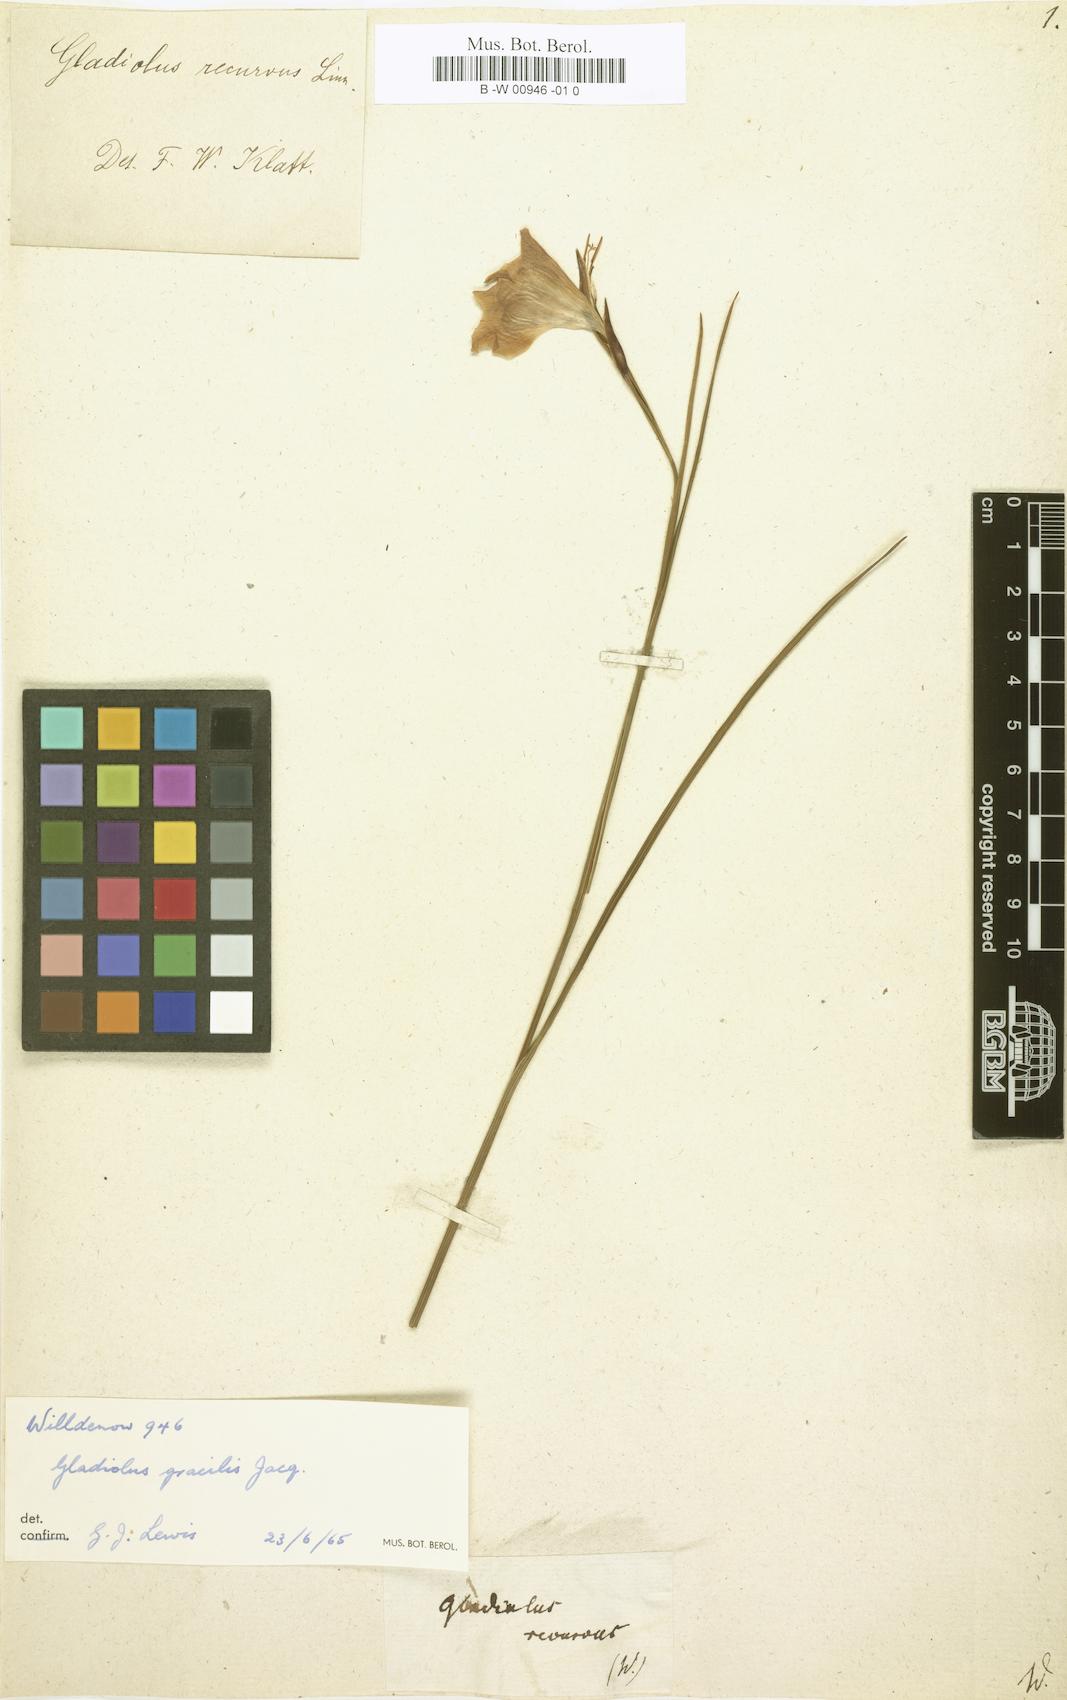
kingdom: Plantae
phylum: Tracheophyta
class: Liliopsida
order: Asparagales
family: Iridaceae
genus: Gladiolus
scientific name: Gladiolus recurvus
